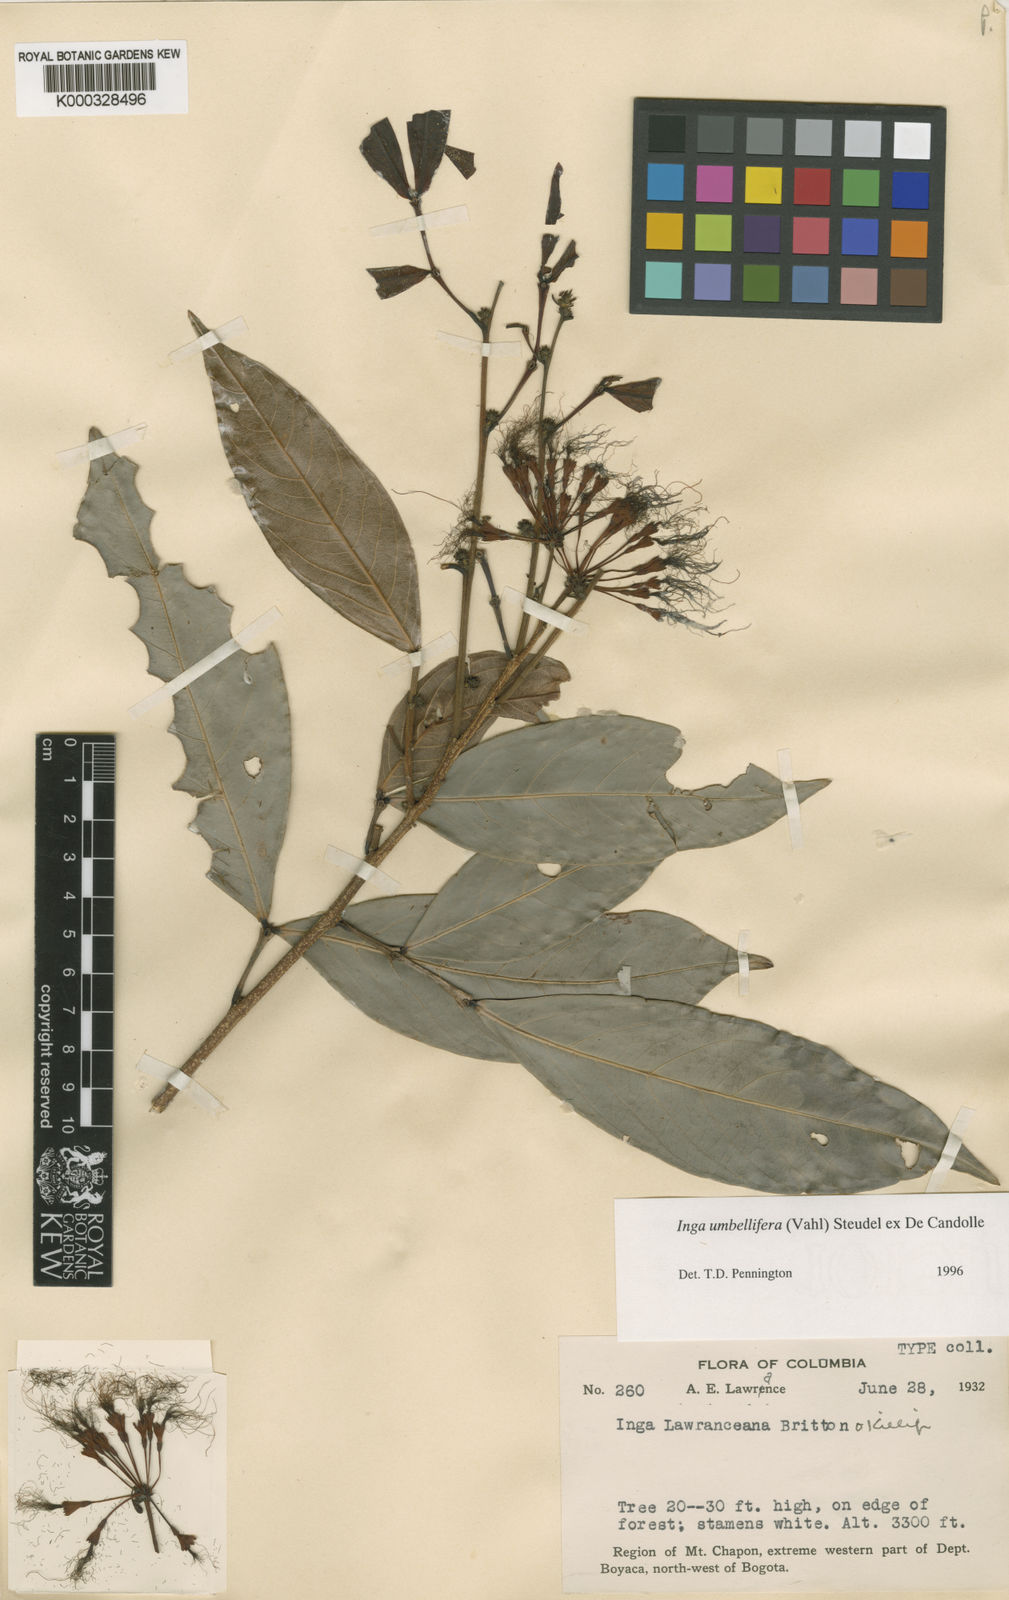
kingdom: Plantae
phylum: Tracheophyta
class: Magnoliopsida
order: Fabales
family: Fabaceae
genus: Inga
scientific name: Inga
